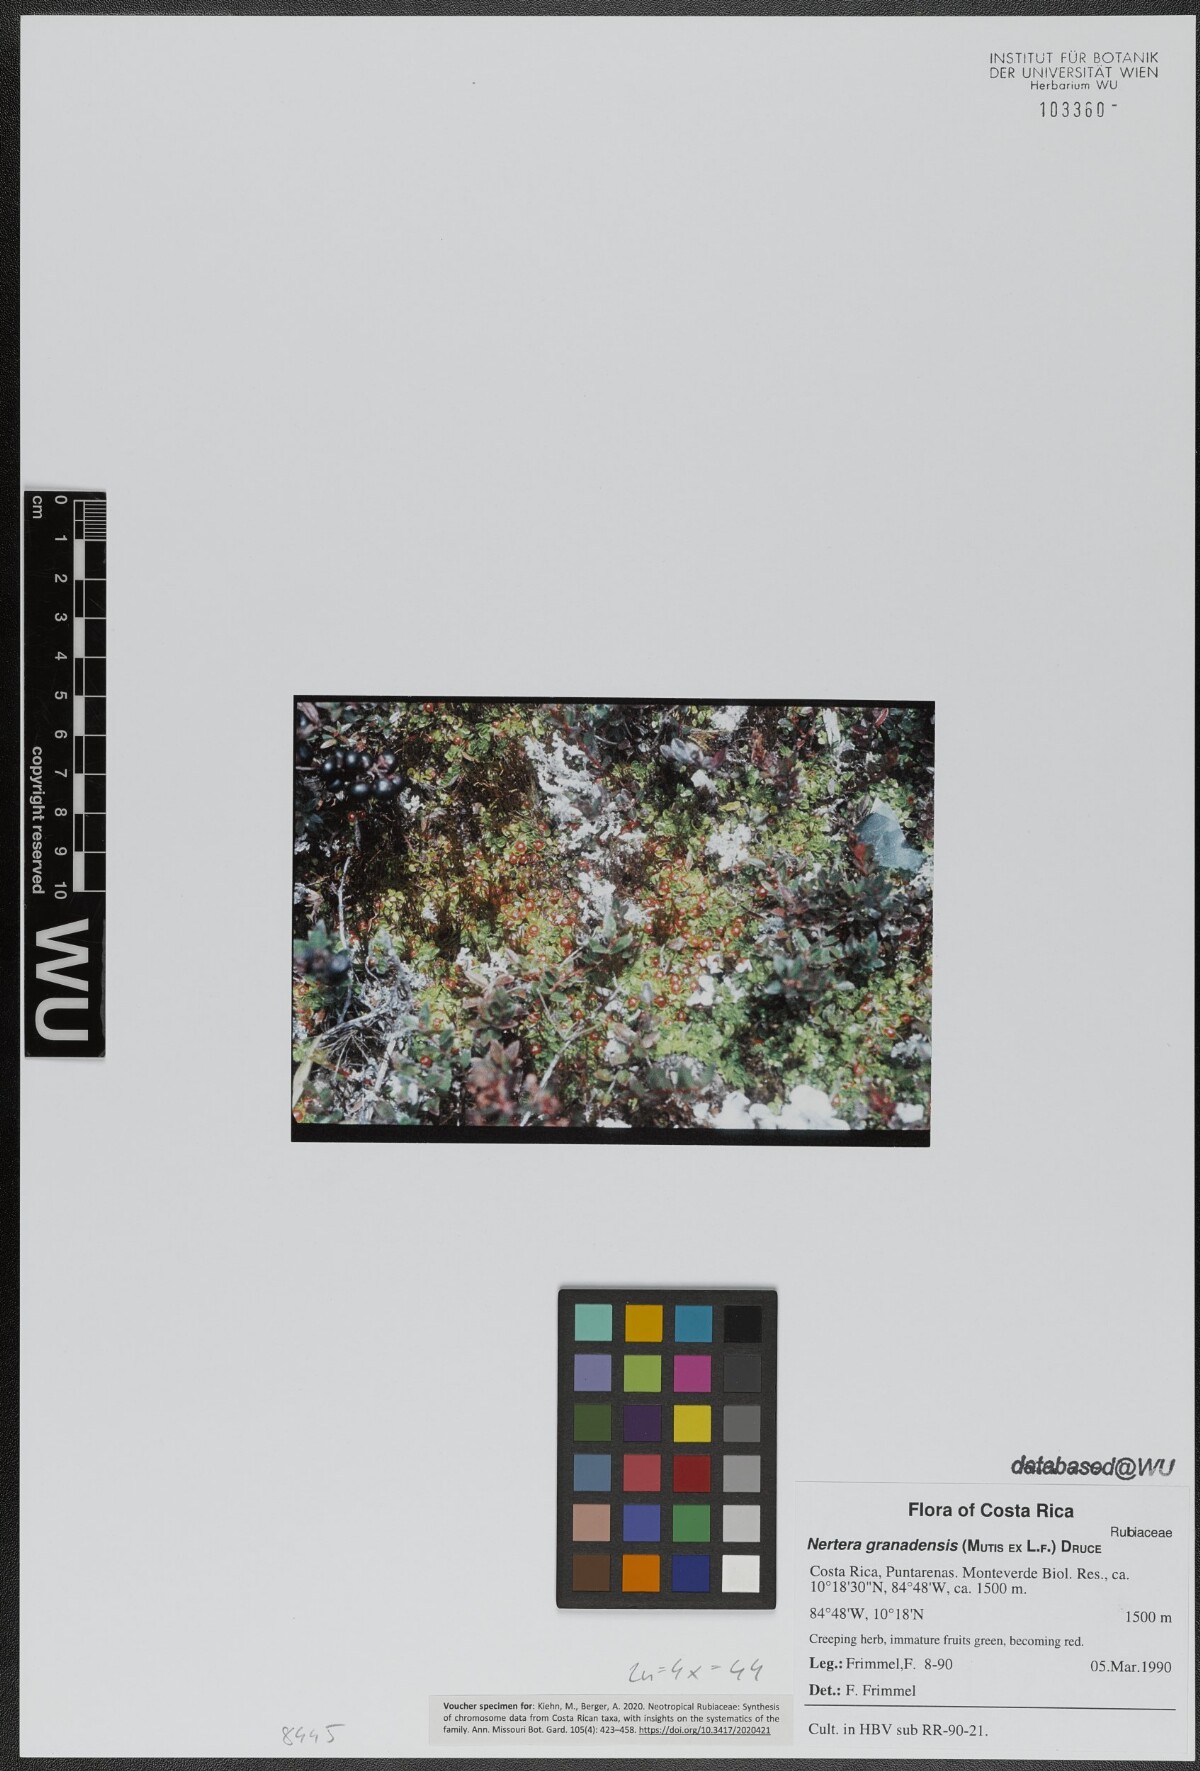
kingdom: Plantae
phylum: Tracheophyta
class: Magnoliopsida
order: Gentianales
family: Rubiaceae
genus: Nertera
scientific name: Nertera granadensis
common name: Beadplant
